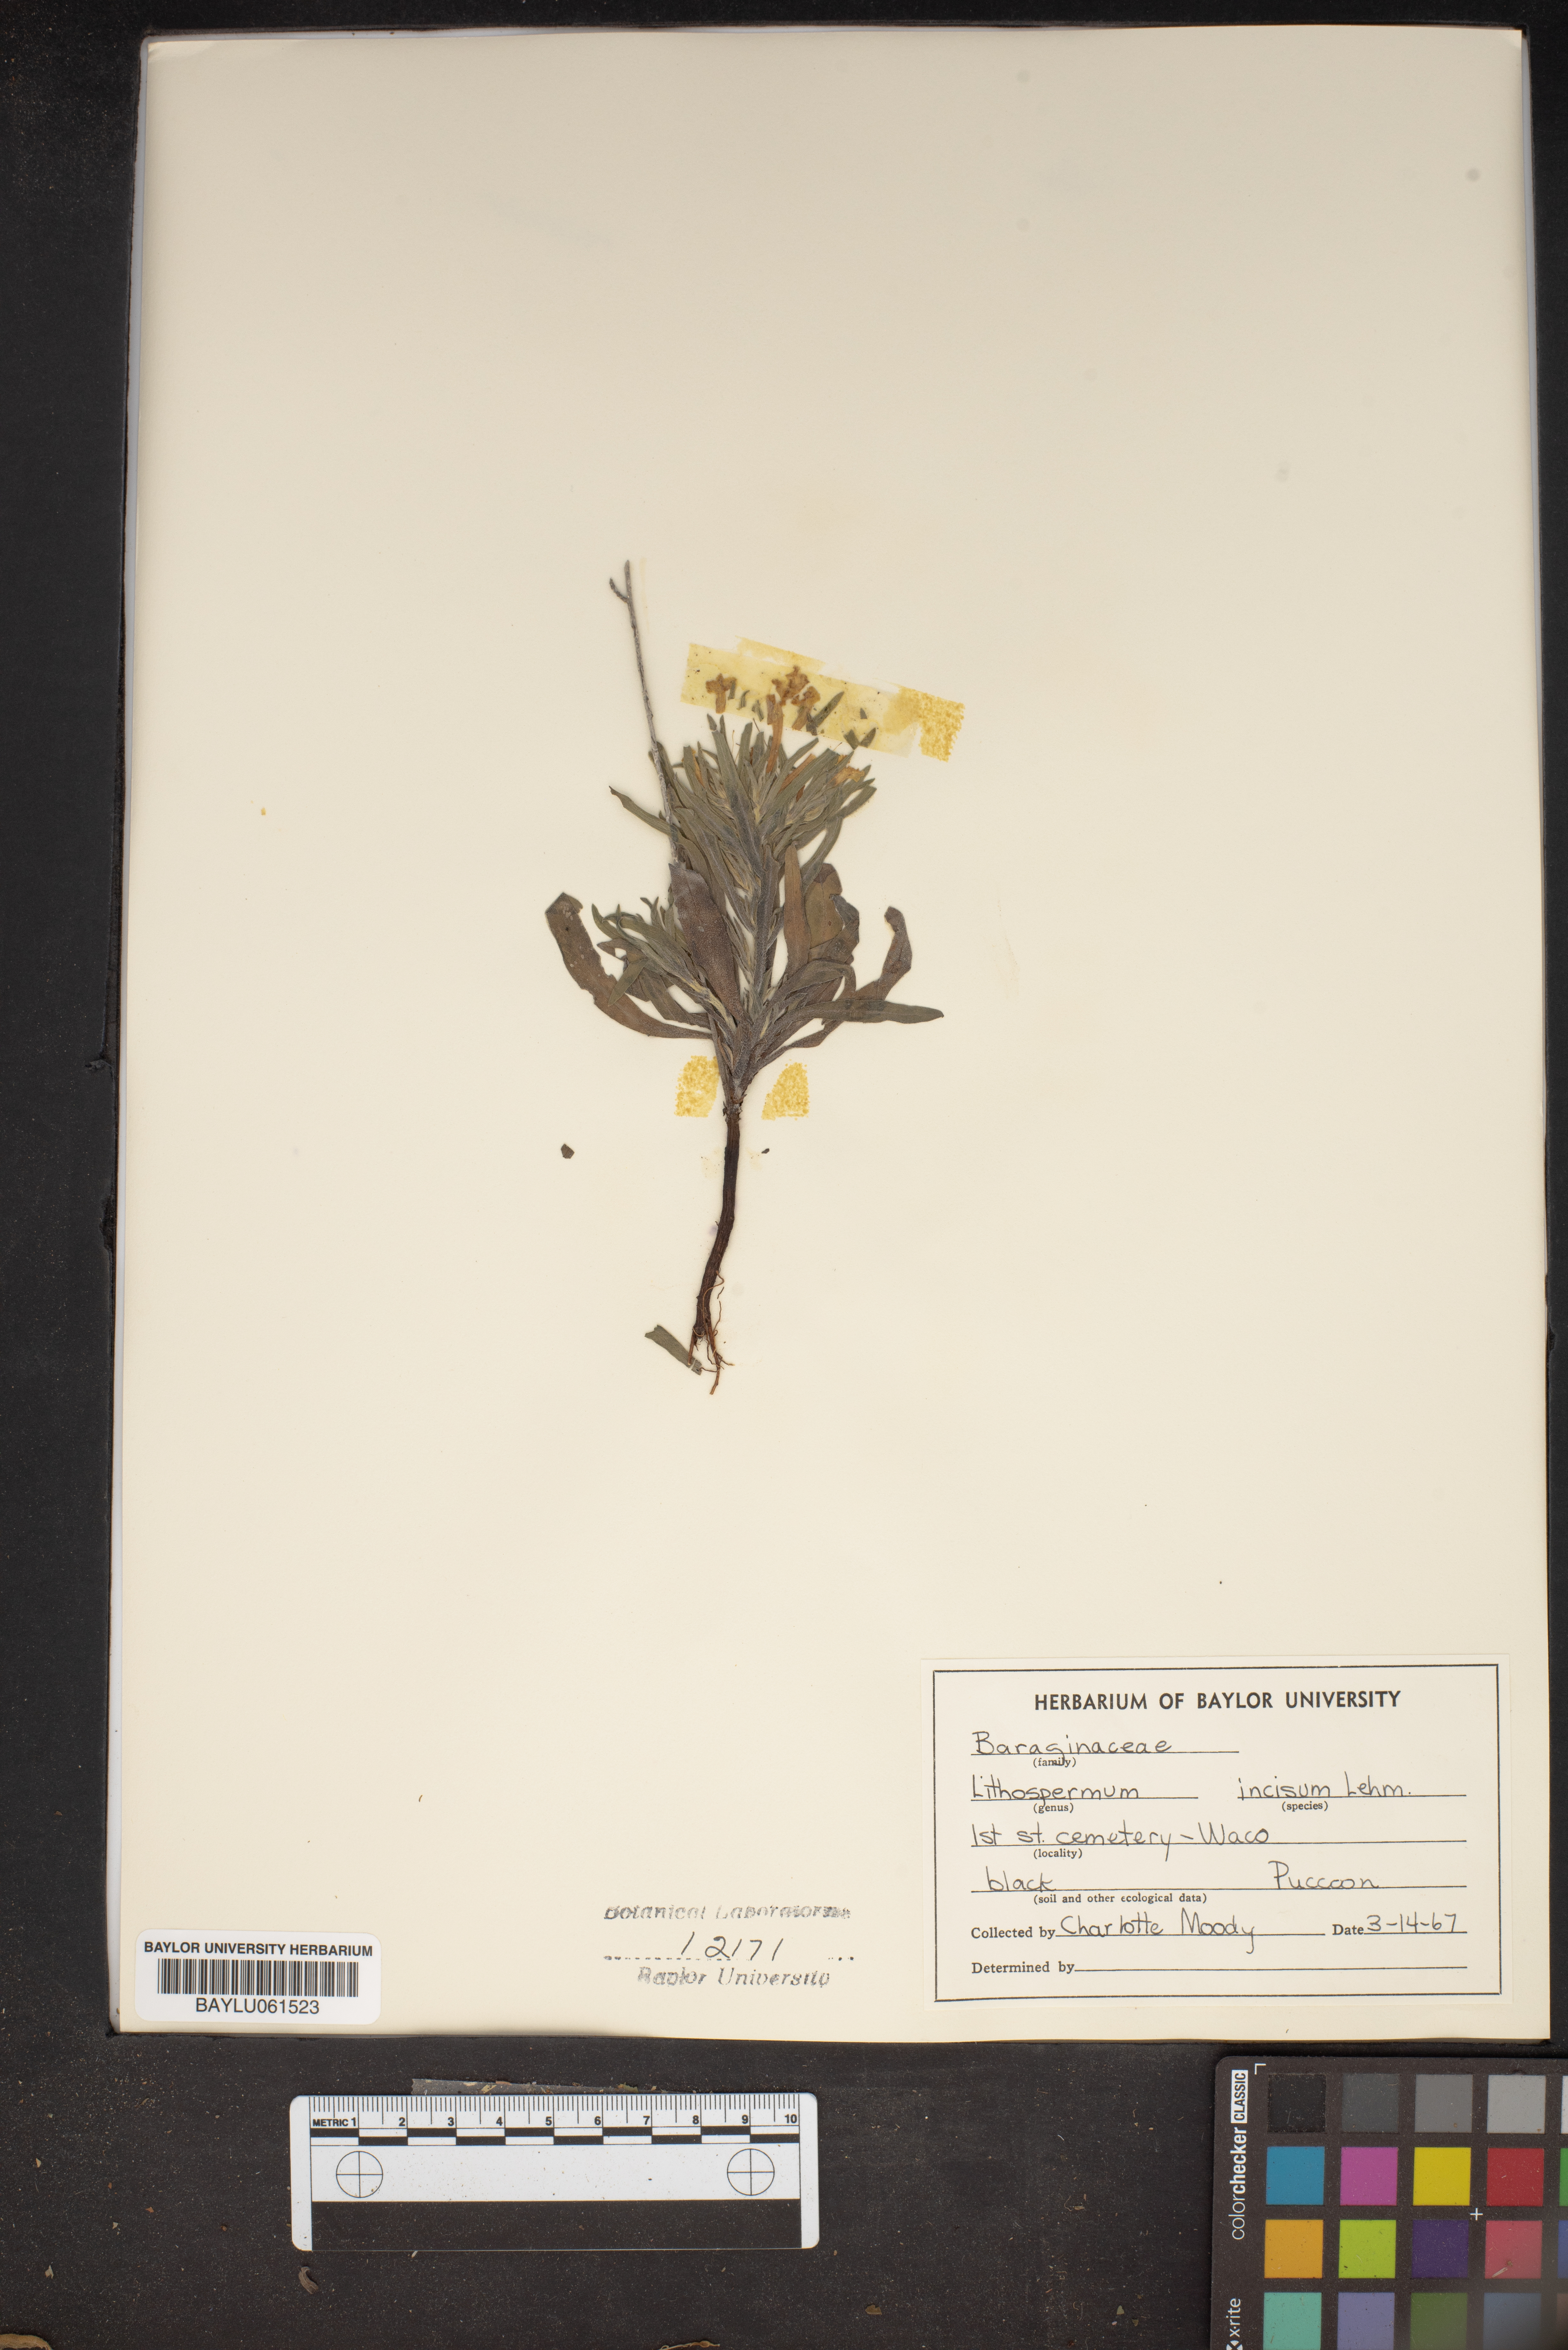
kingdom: Plantae
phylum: Tracheophyta
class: Magnoliopsida
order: Boraginales
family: Boraginaceae
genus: Lithospermum
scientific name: Lithospermum incisum
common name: Fringed gromwell
